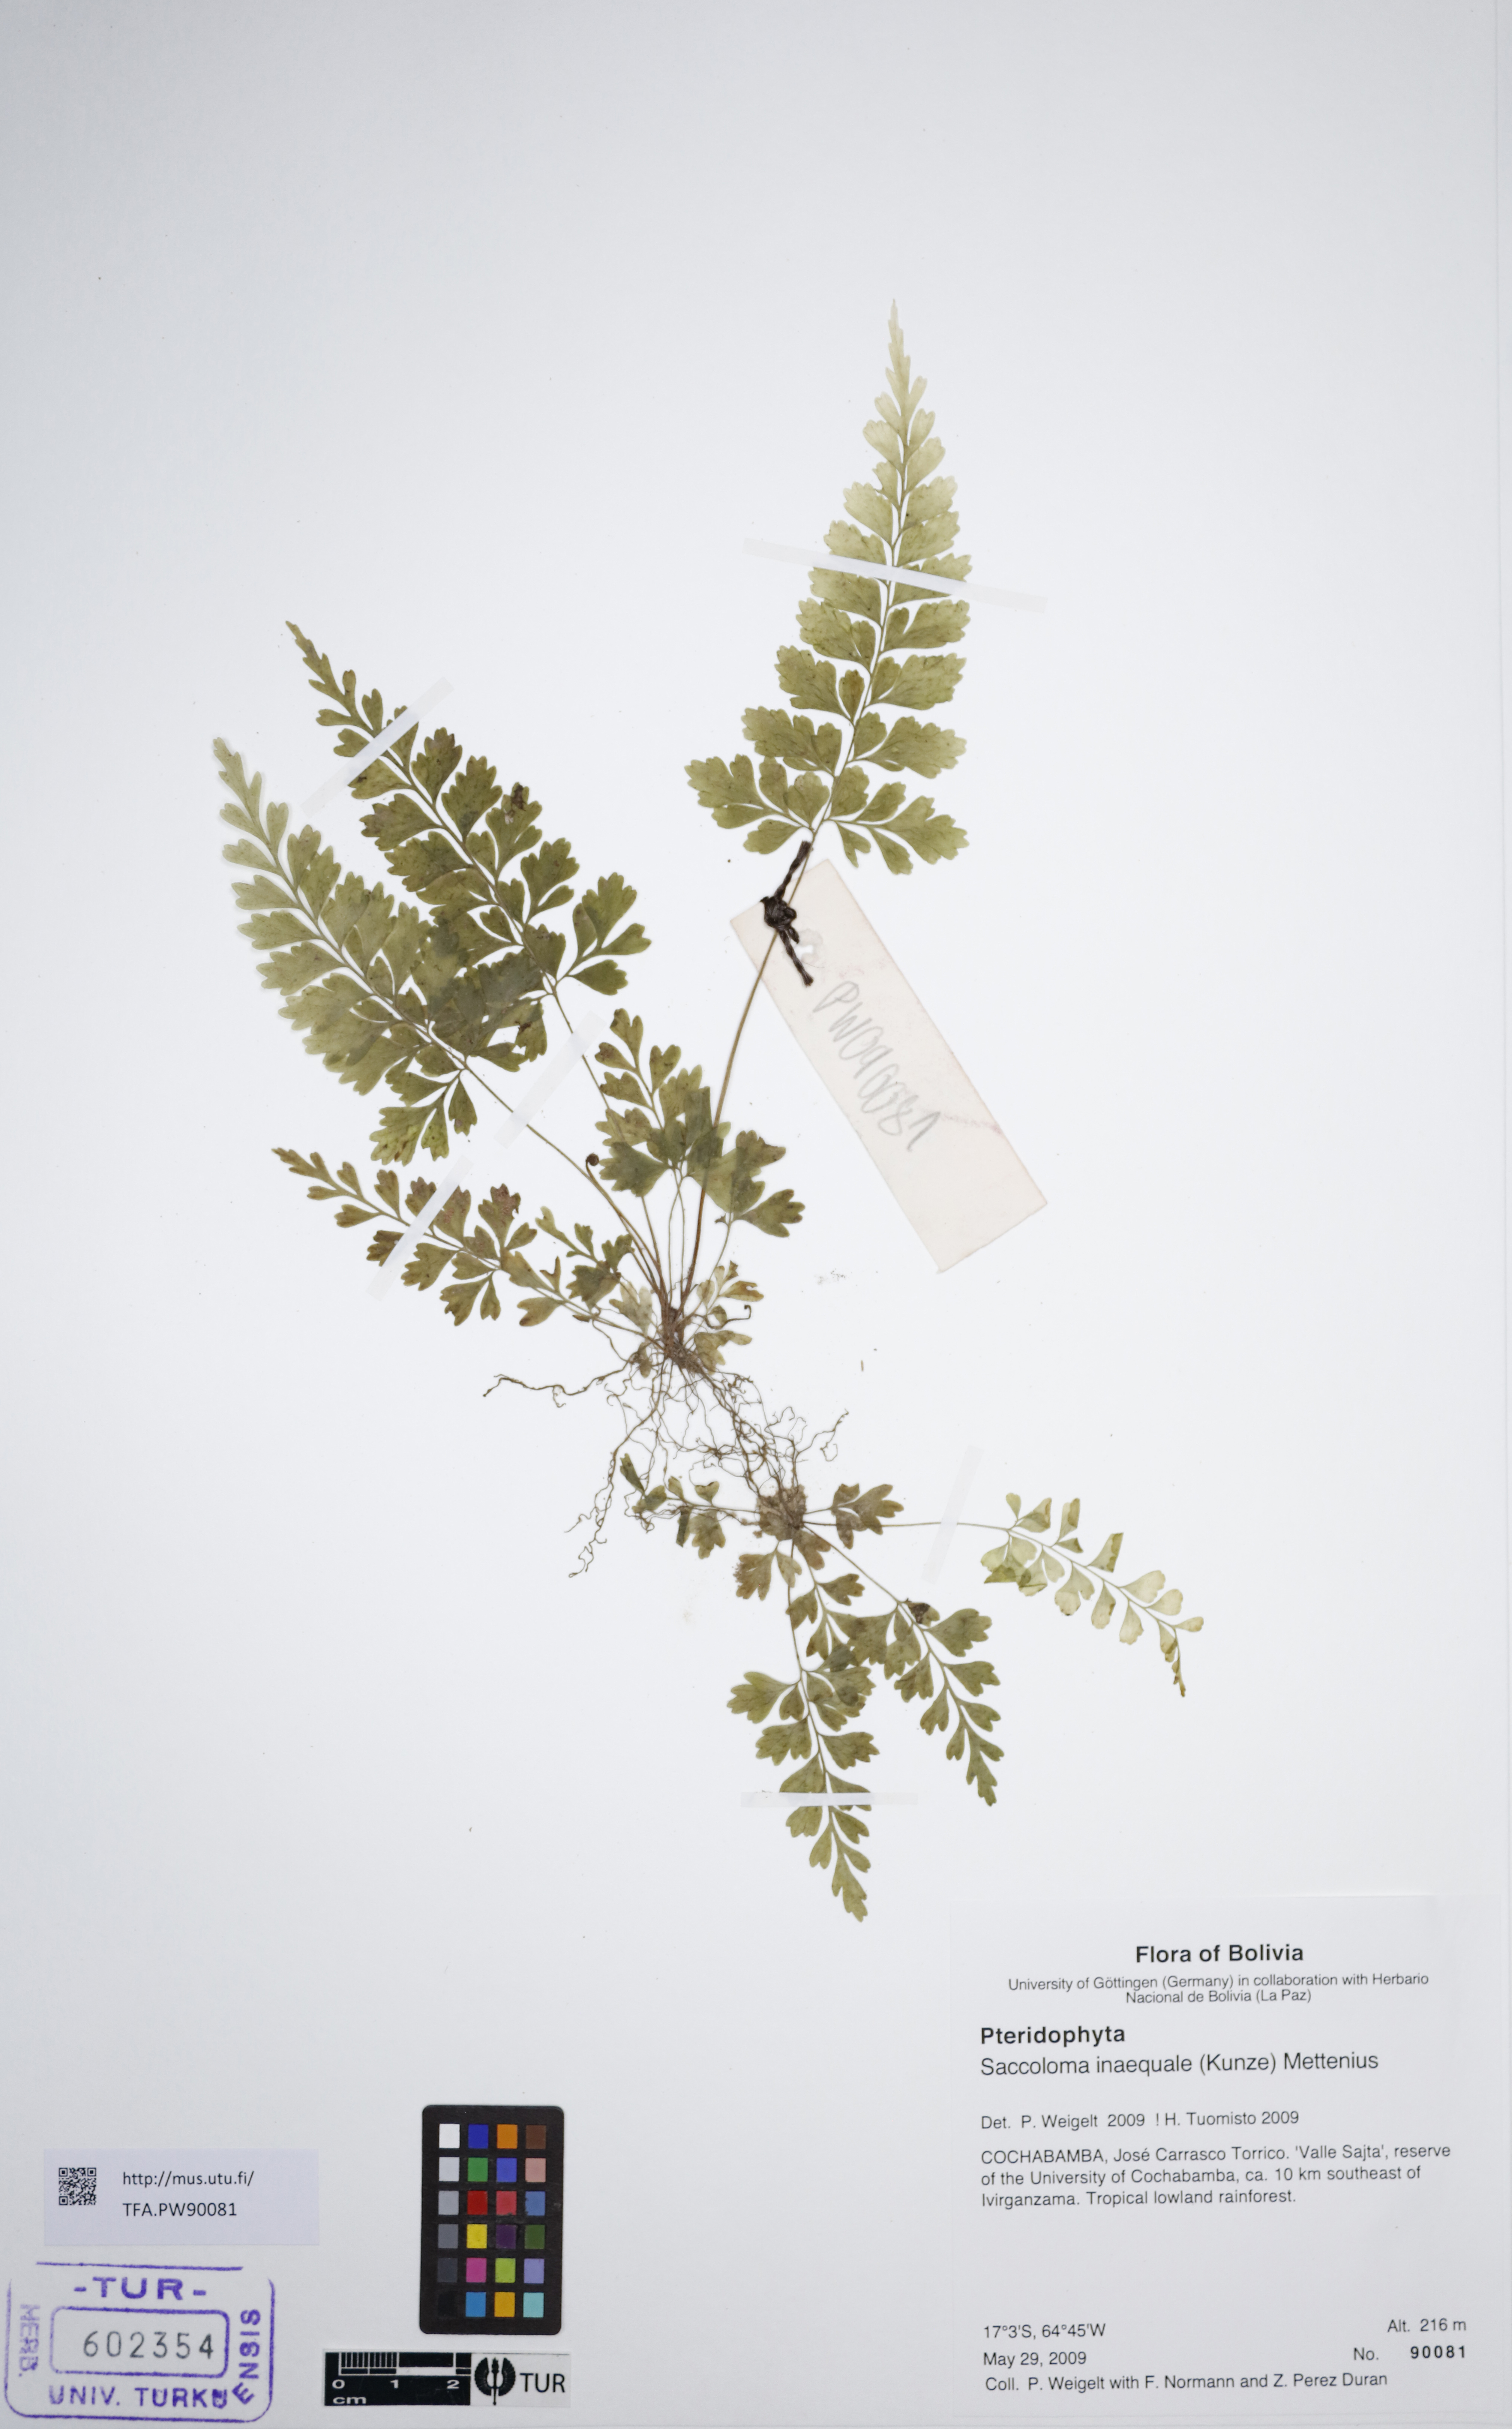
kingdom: Plantae
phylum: Tracheophyta
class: Polypodiopsida
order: Polypodiales
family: Saccolomataceae
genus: Saccoloma
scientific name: Saccoloma inaequale
